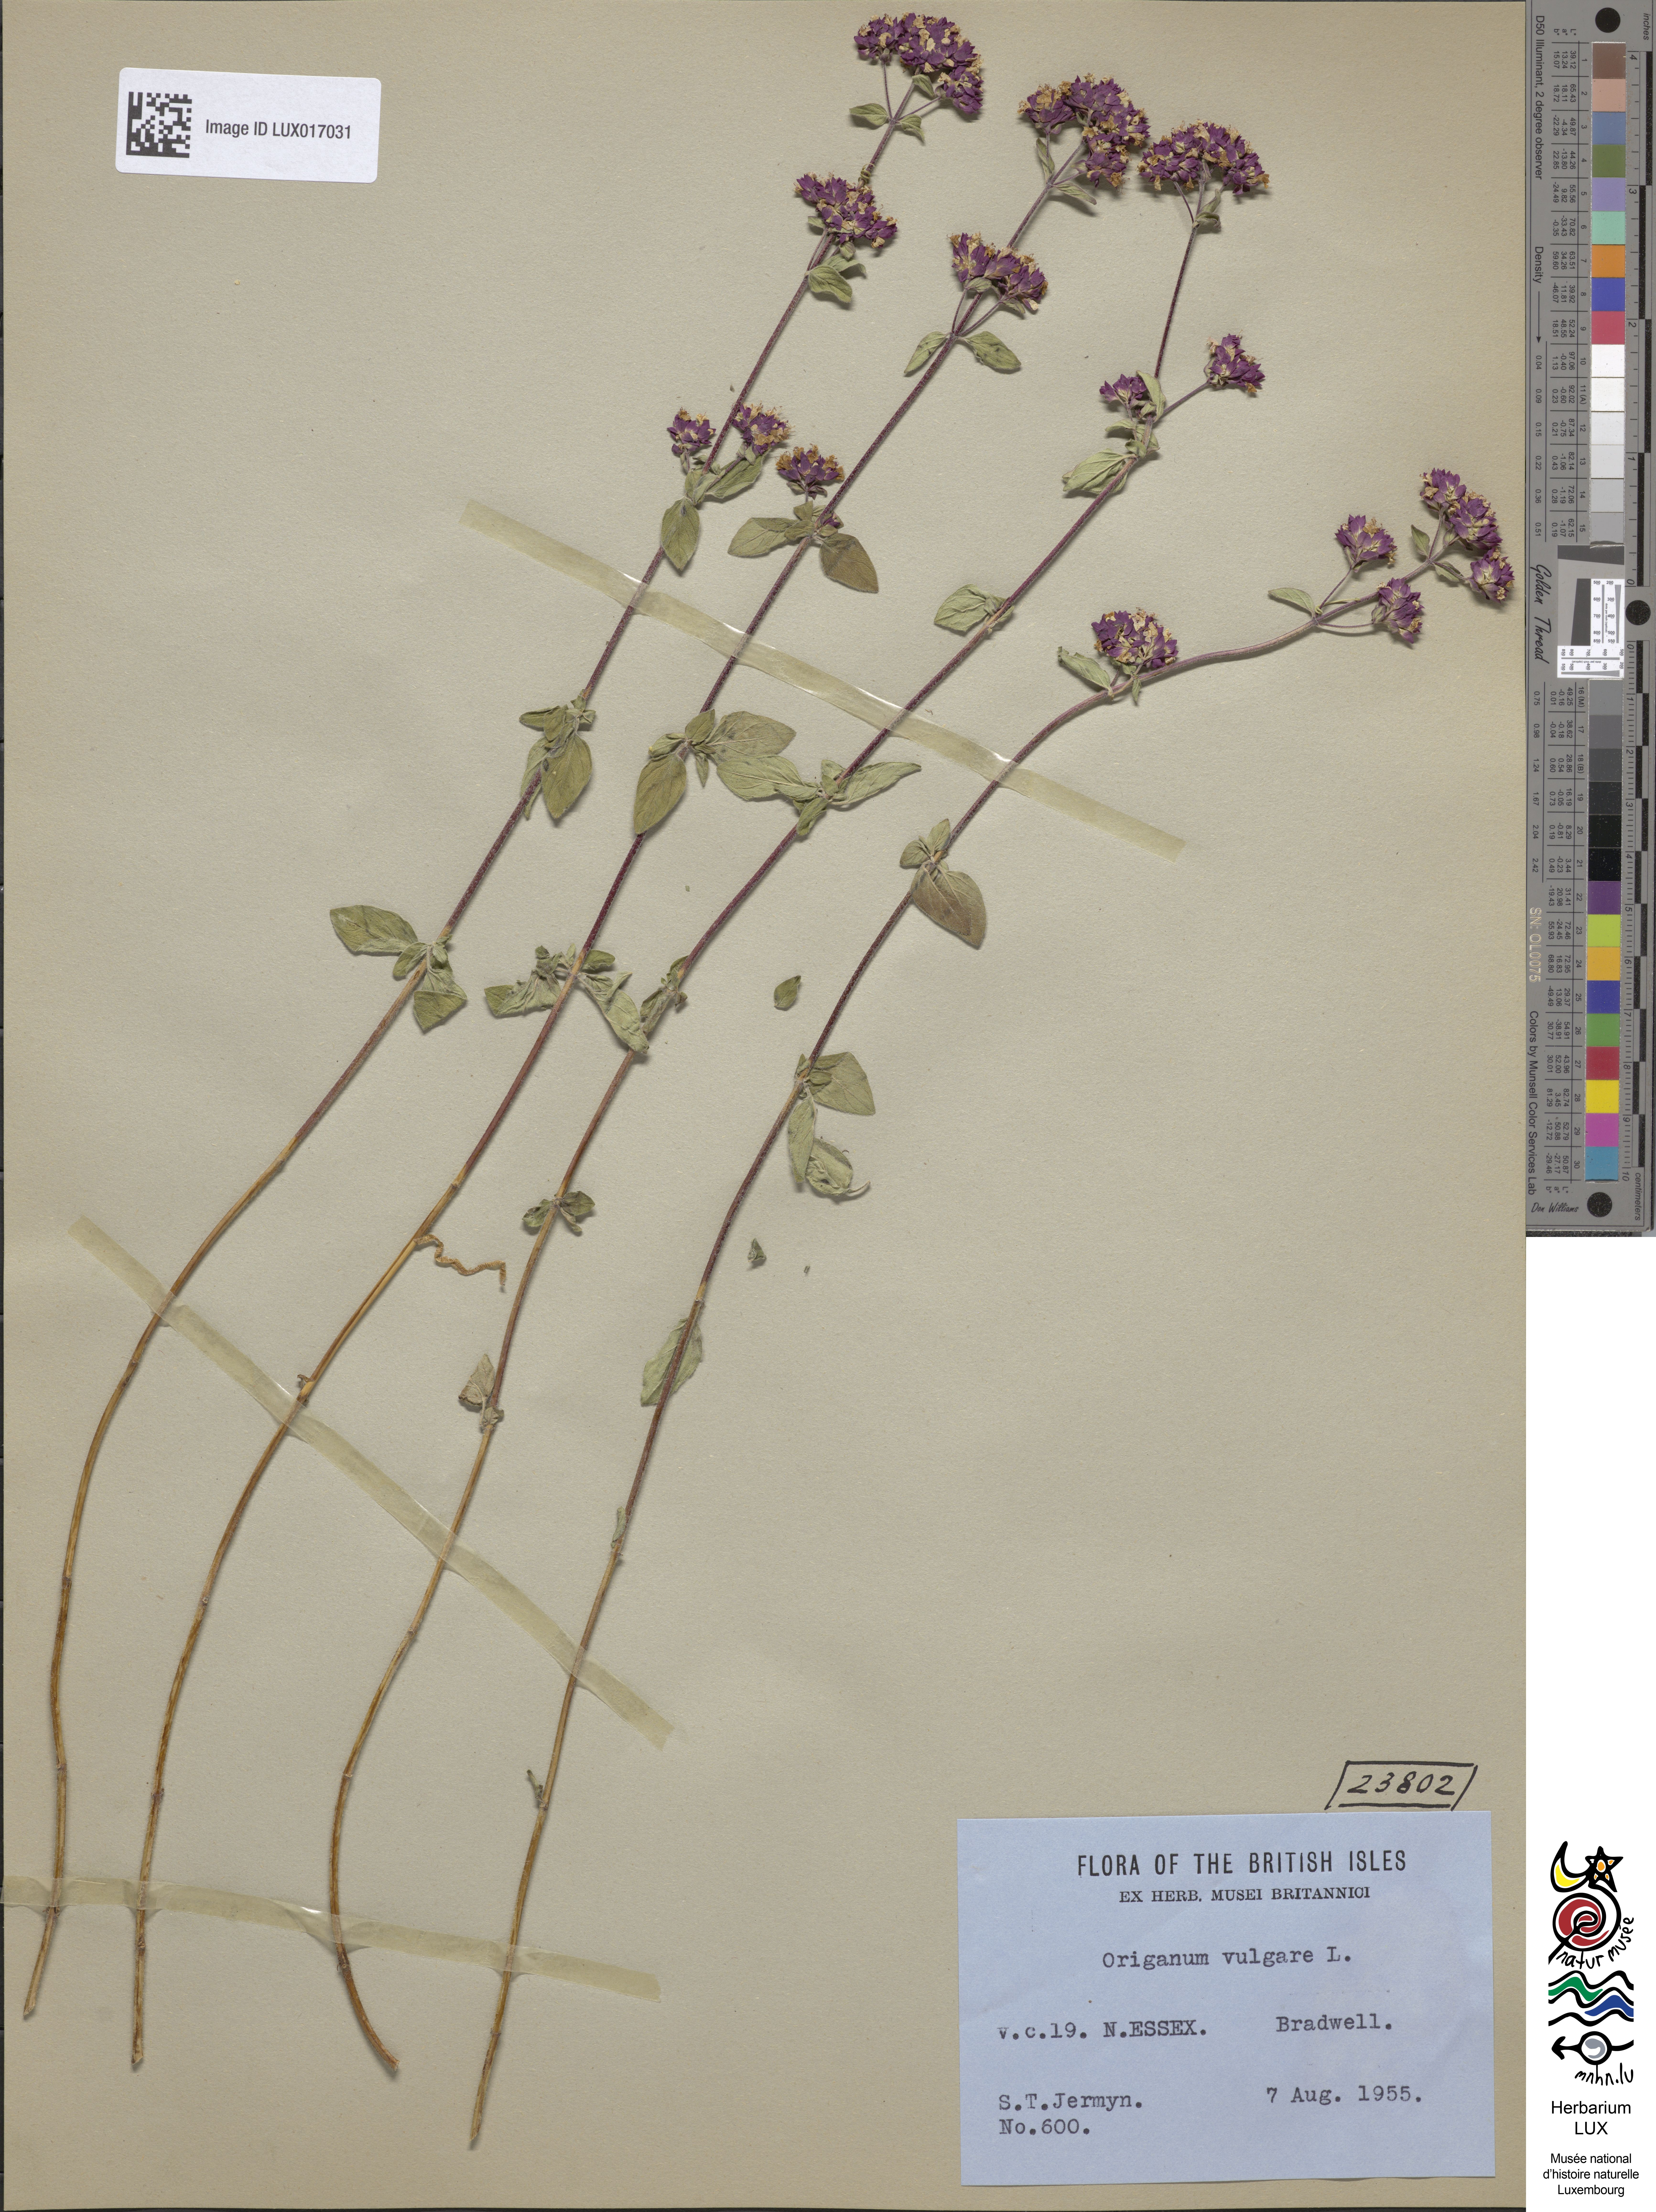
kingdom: Plantae
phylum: Tracheophyta
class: Magnoliopsida
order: Lamiales
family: Lamiaceae
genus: Origanum
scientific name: Origanum vulgare
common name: Wild marjoram
